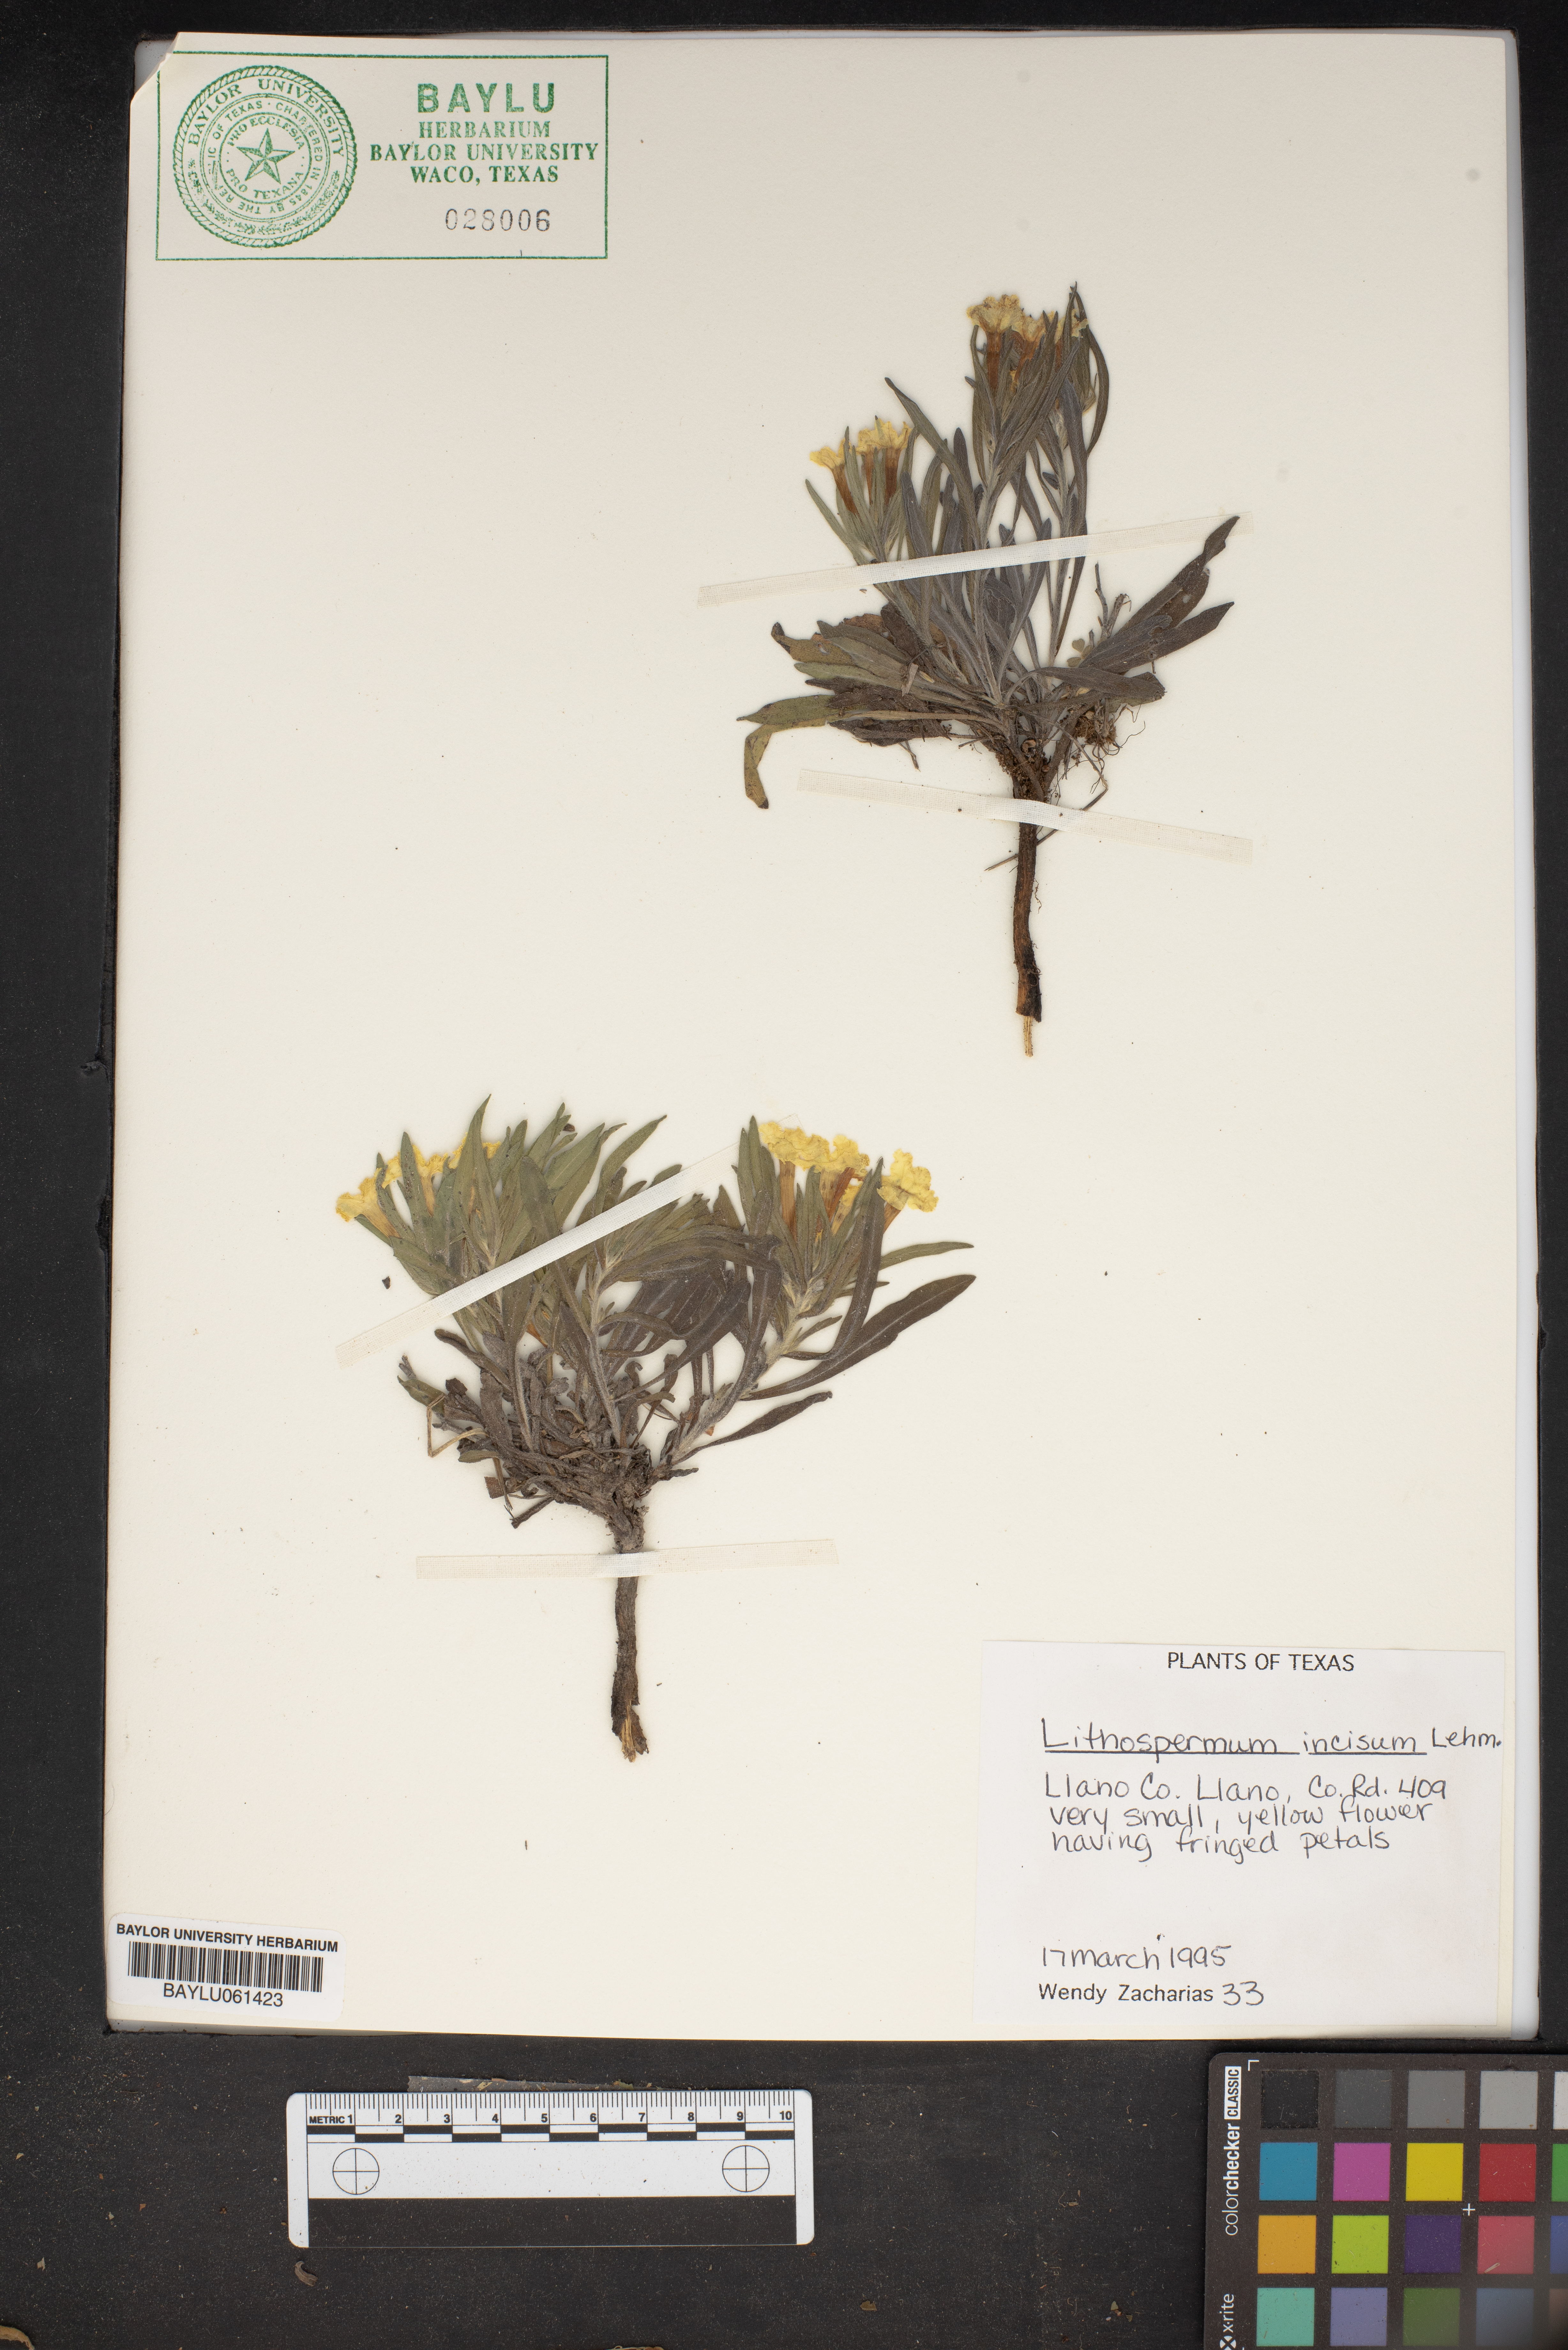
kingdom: Plantae
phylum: Tracheophyta
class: Magnoliopsida
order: Boraginales
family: Boraginaceae
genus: Lithospermum
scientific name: Lithospermum incisum
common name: Fringed gromwell
